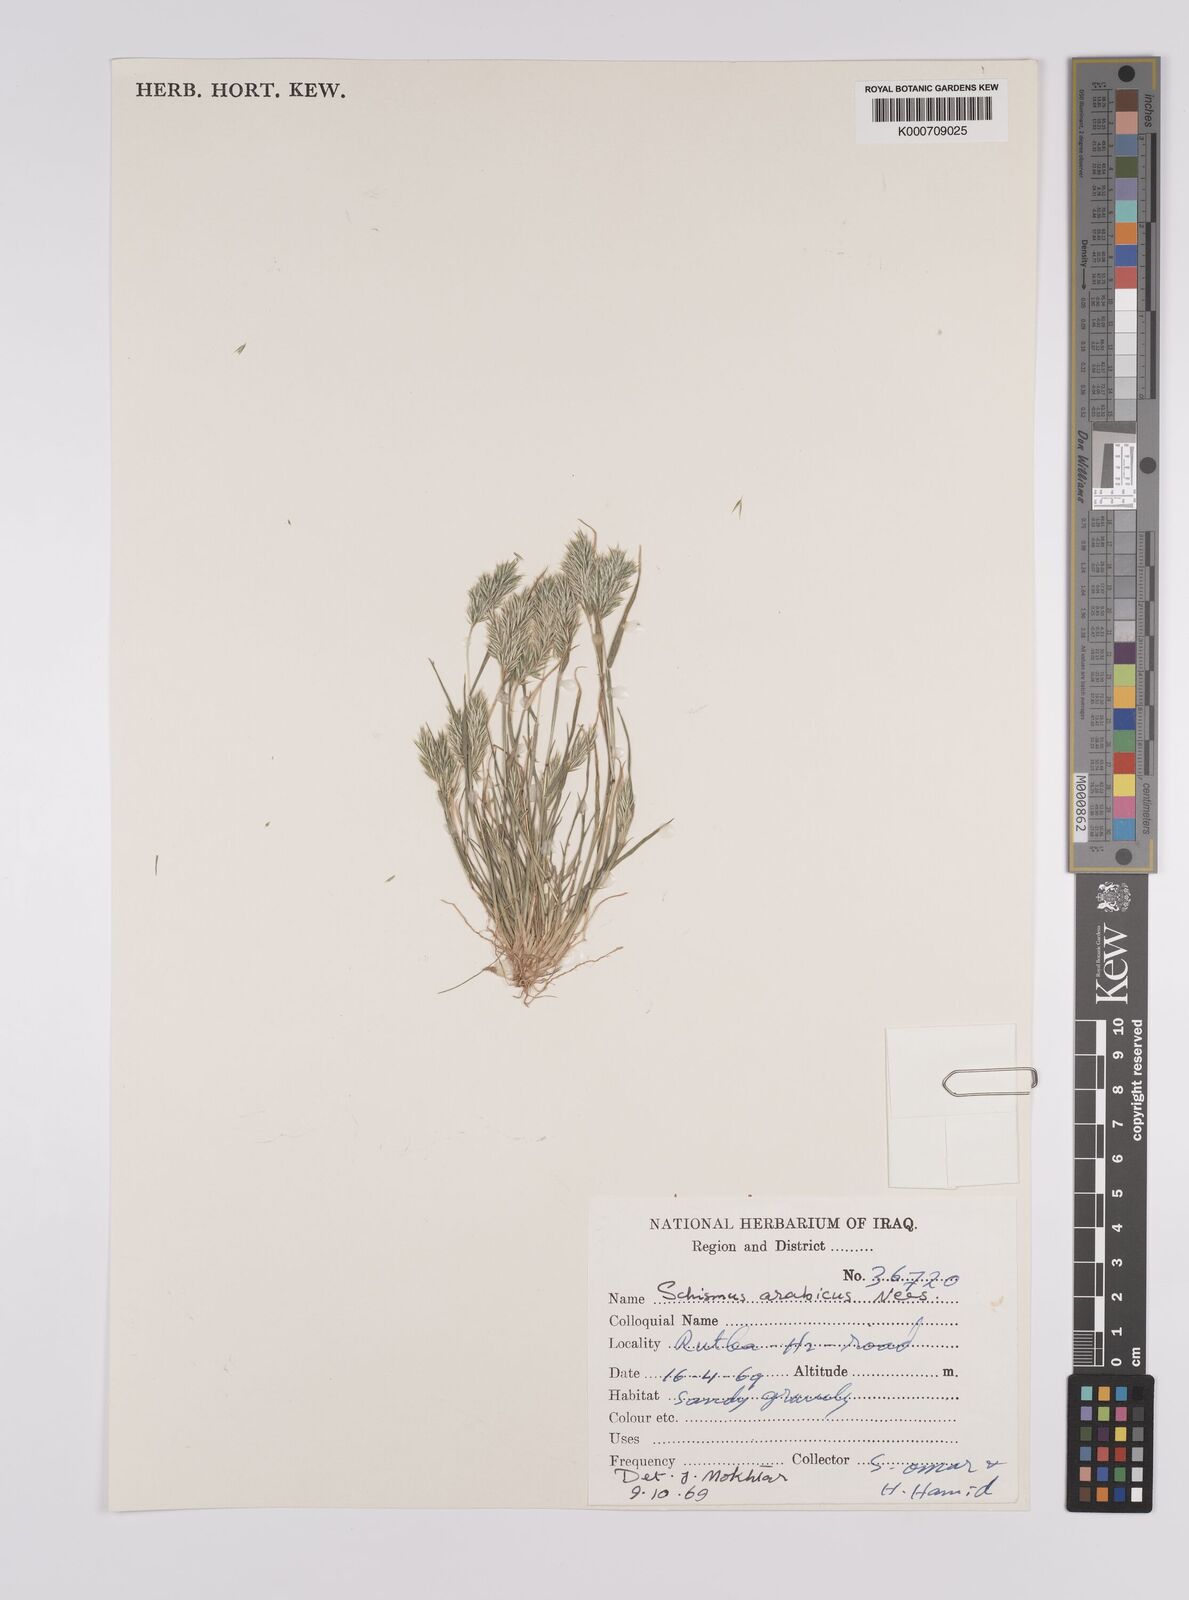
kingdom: Plantae
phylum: Tracheophyta
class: Liliopsida
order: Poales
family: Poaceae
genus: Schismus
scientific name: Schismus arabicus
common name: Arabian schismus
